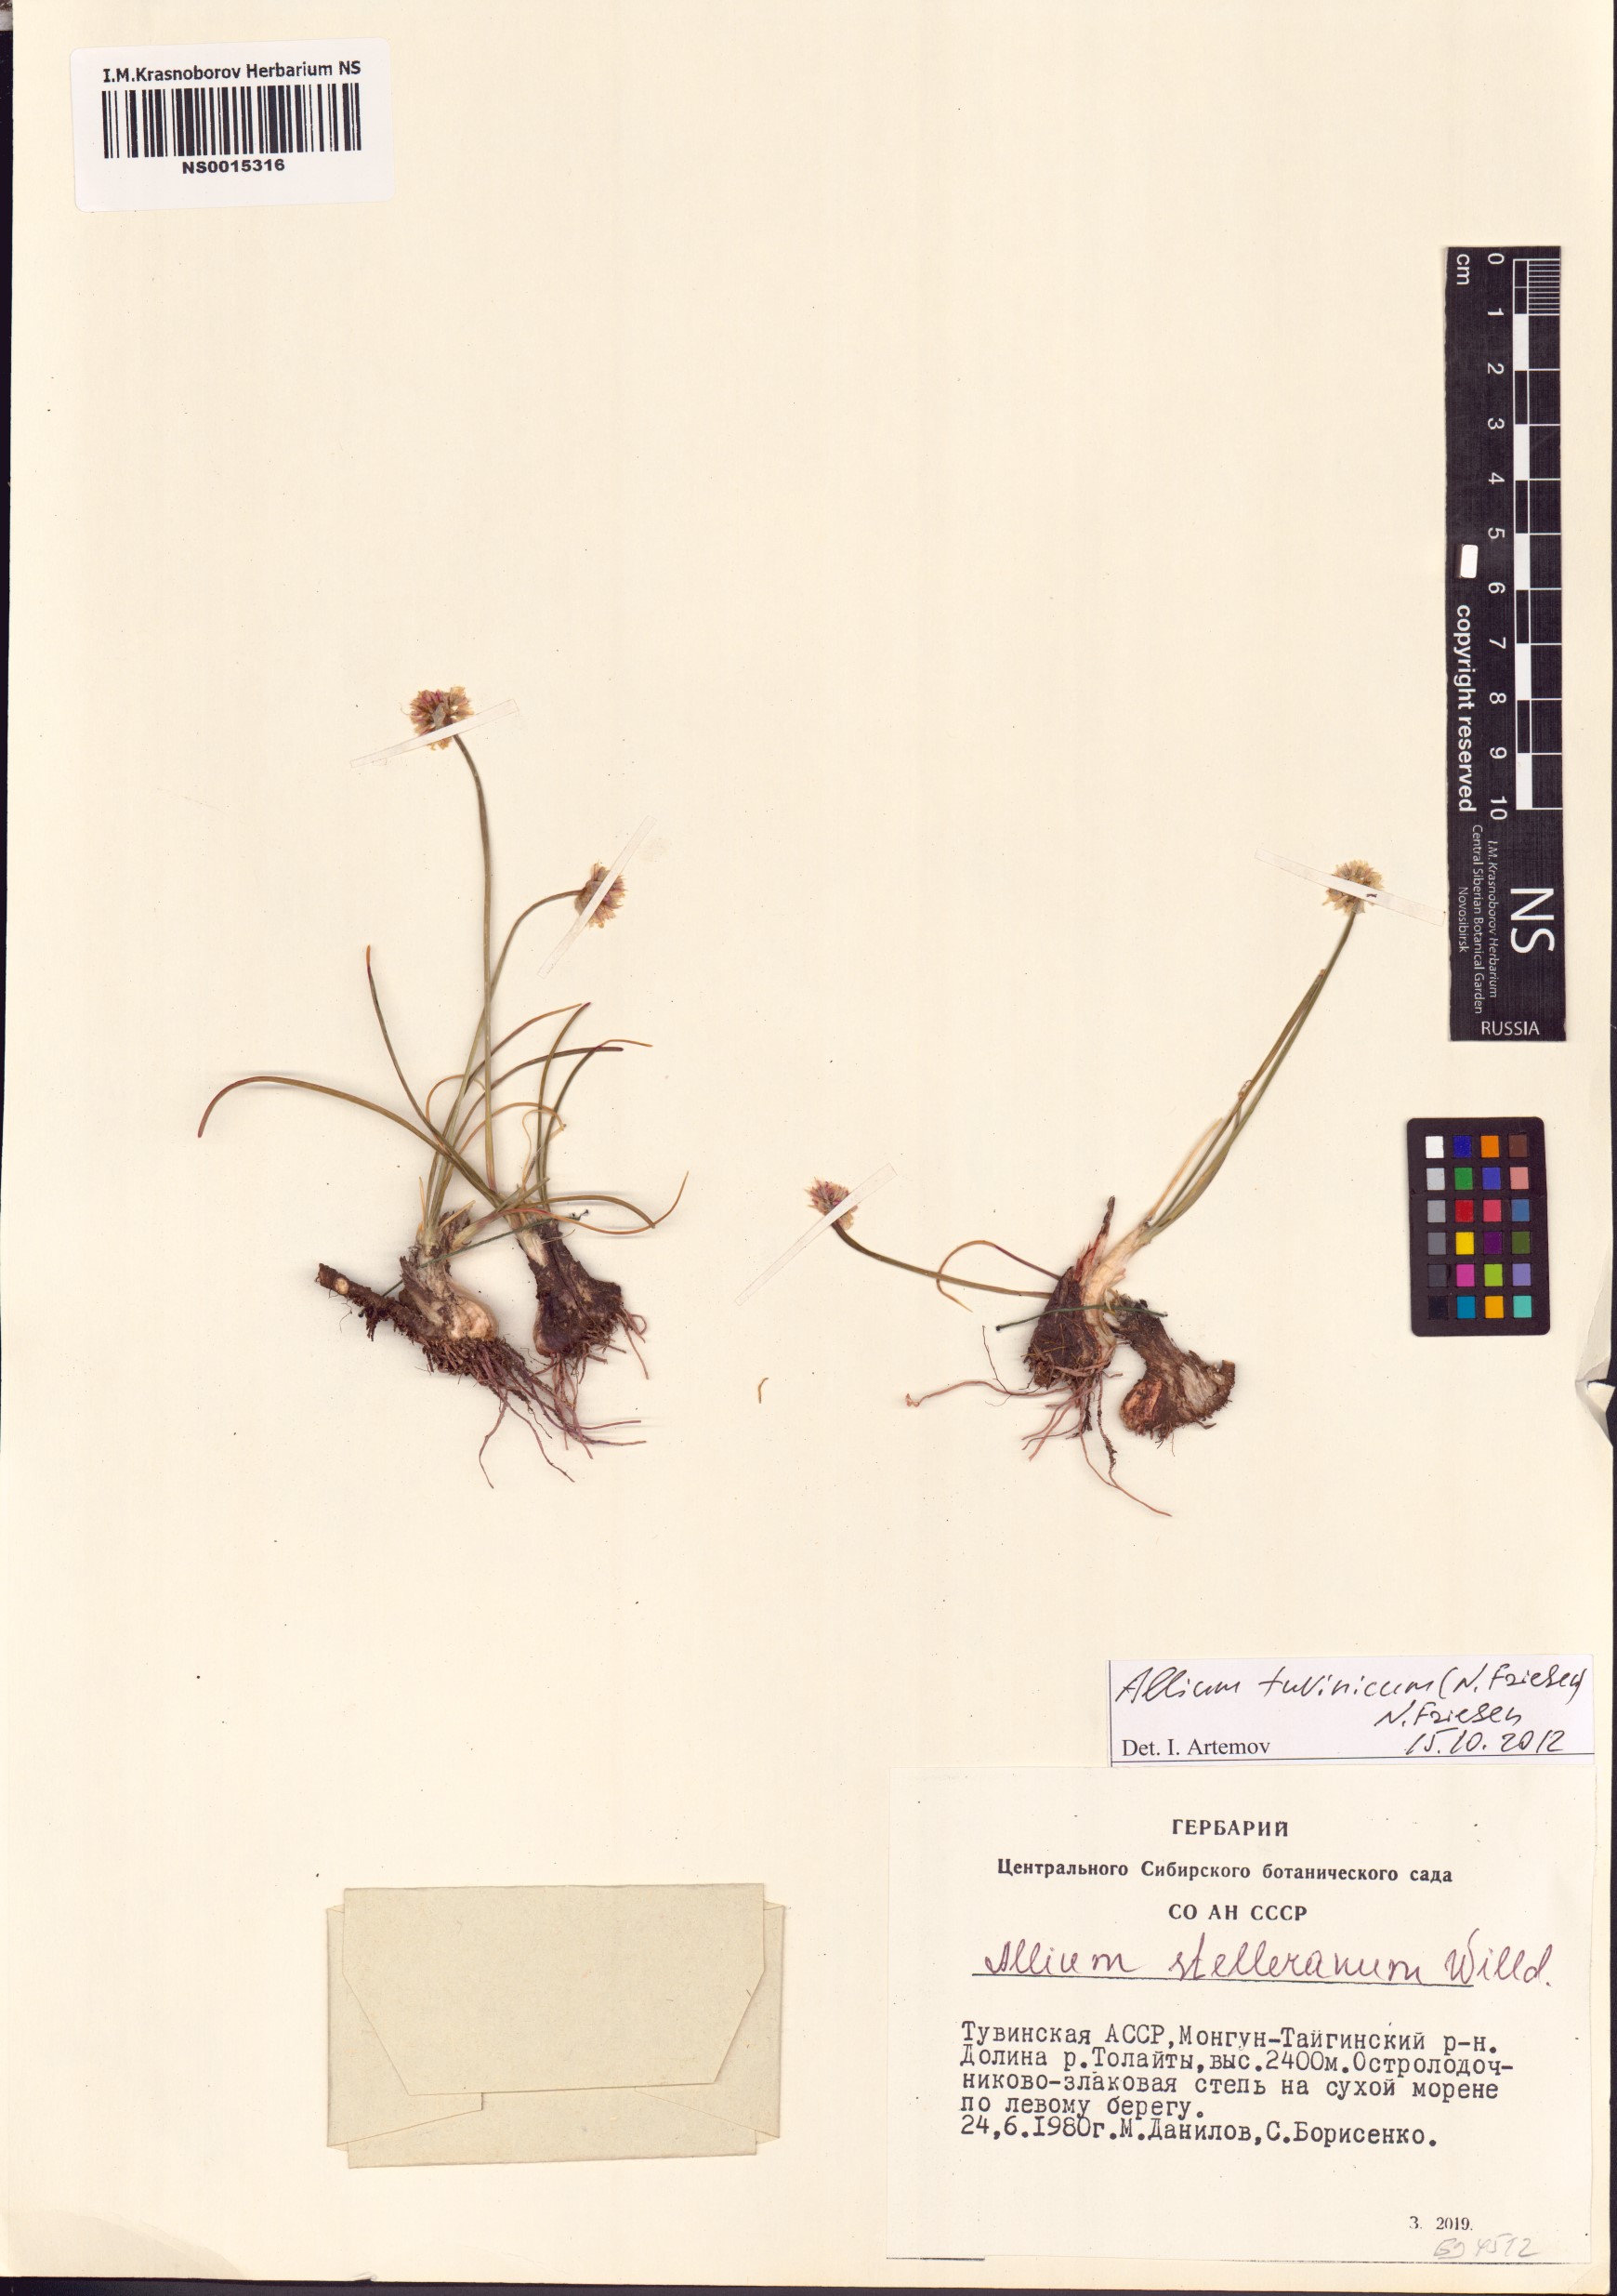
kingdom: Plantae
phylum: Tracheophyta
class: Liliopsida
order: Asparagales
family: Amaryllidaceae
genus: Allium
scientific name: Allium tuvinicum
